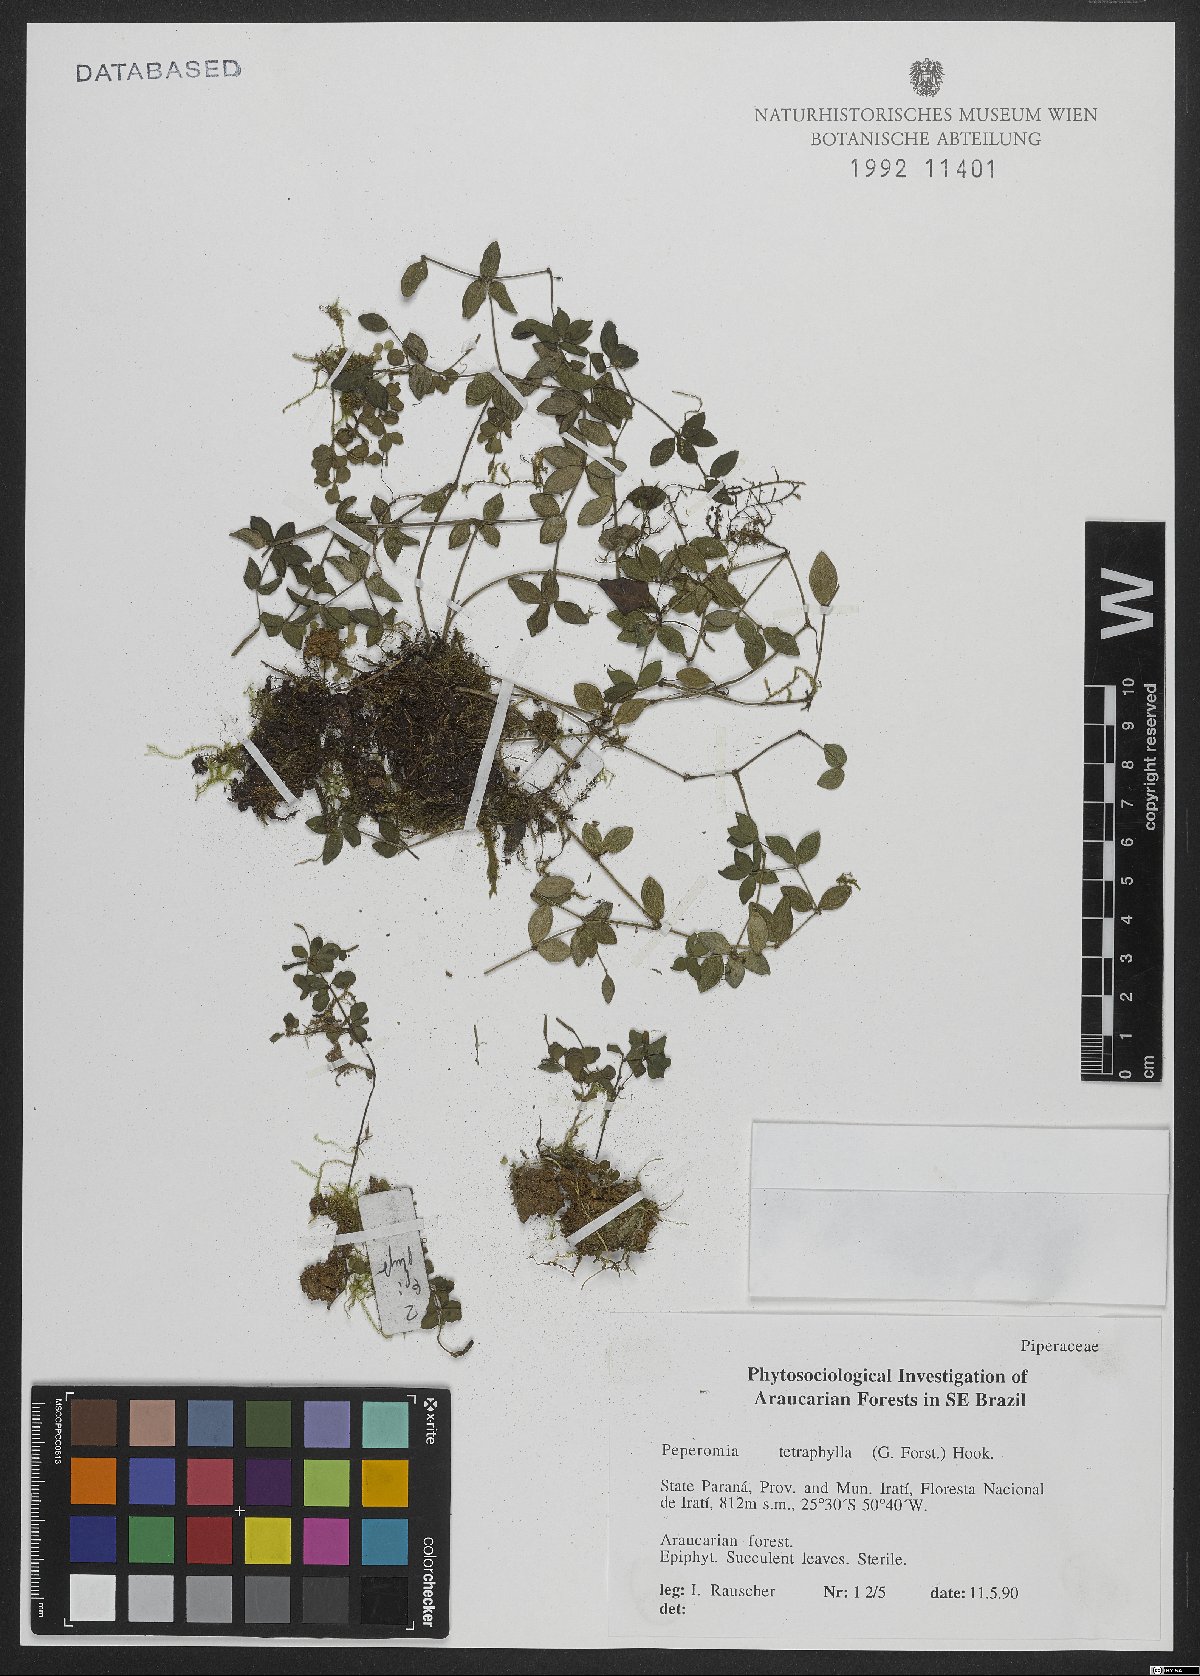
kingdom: Plantae
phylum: Tracheophyta
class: Magnoliopsida
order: Piperales
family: Piperaceae
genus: Peperomia
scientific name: Peperomia tetraphylla
